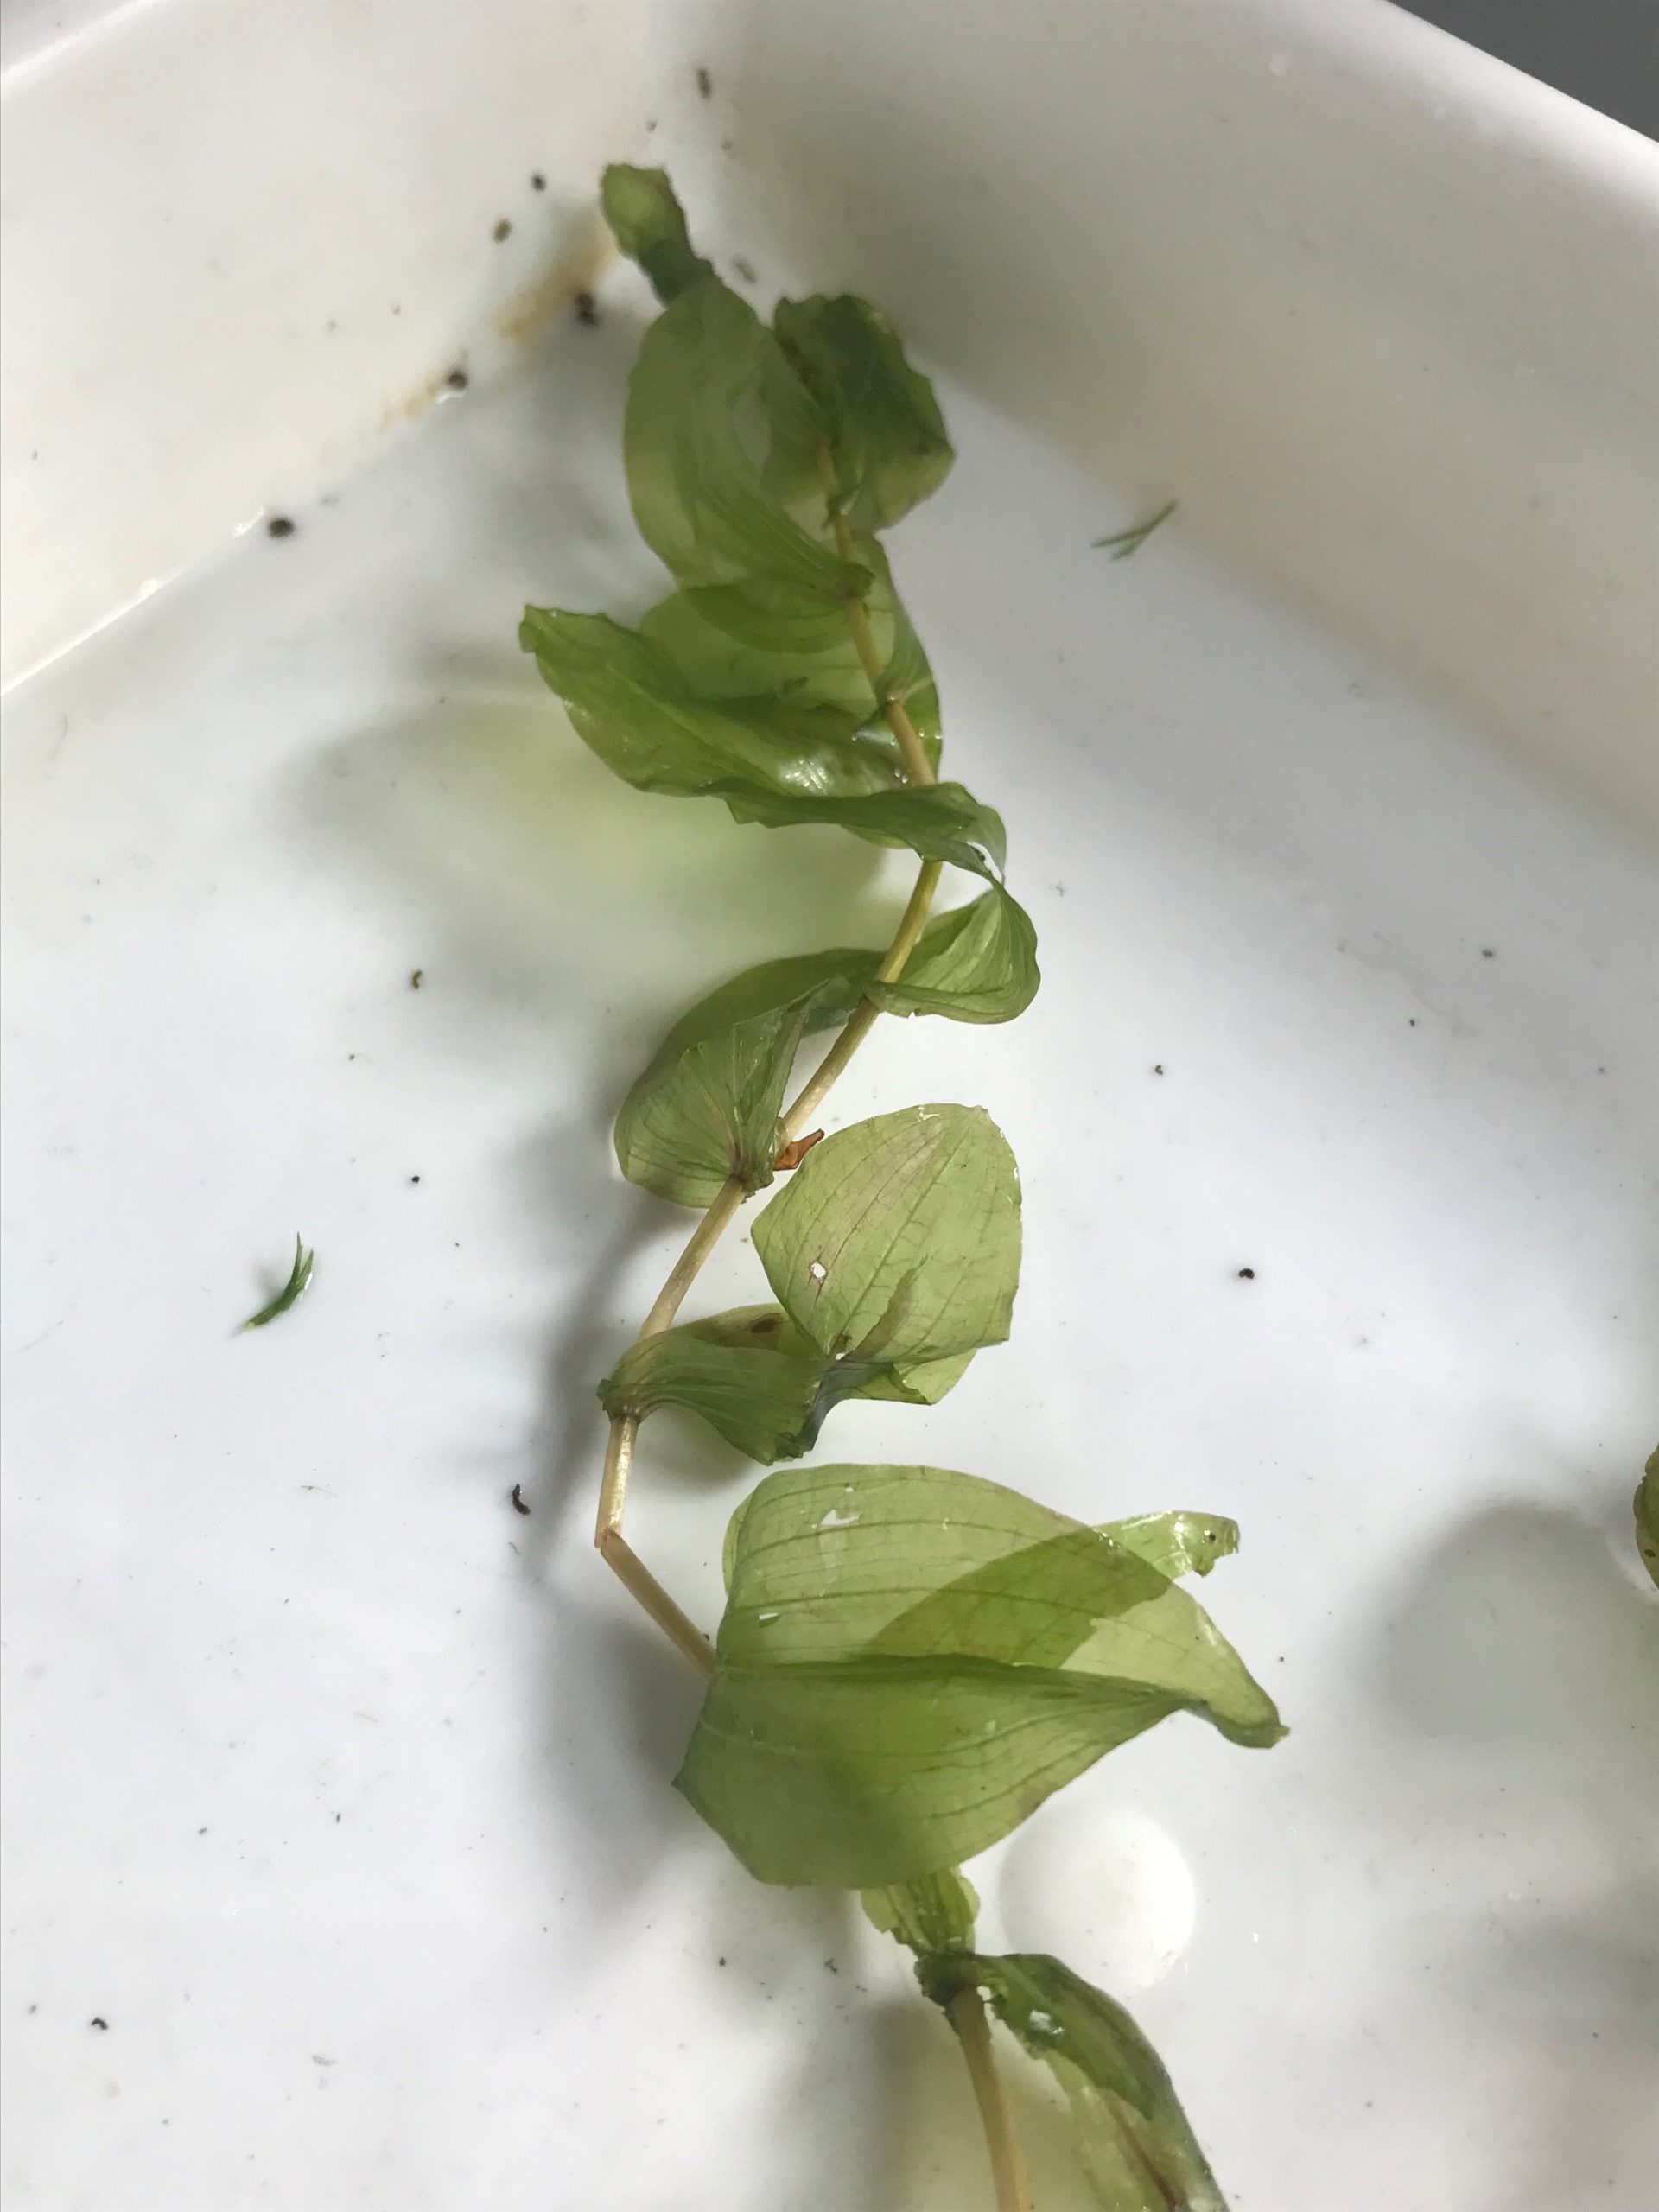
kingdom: Plantae
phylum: Tracheophyta
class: Liliopsida
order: Alismatales
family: Potamogetonaceae
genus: Potamogeton
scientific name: Potamogeton perfoliatus
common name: Hjertebladet vandaks
